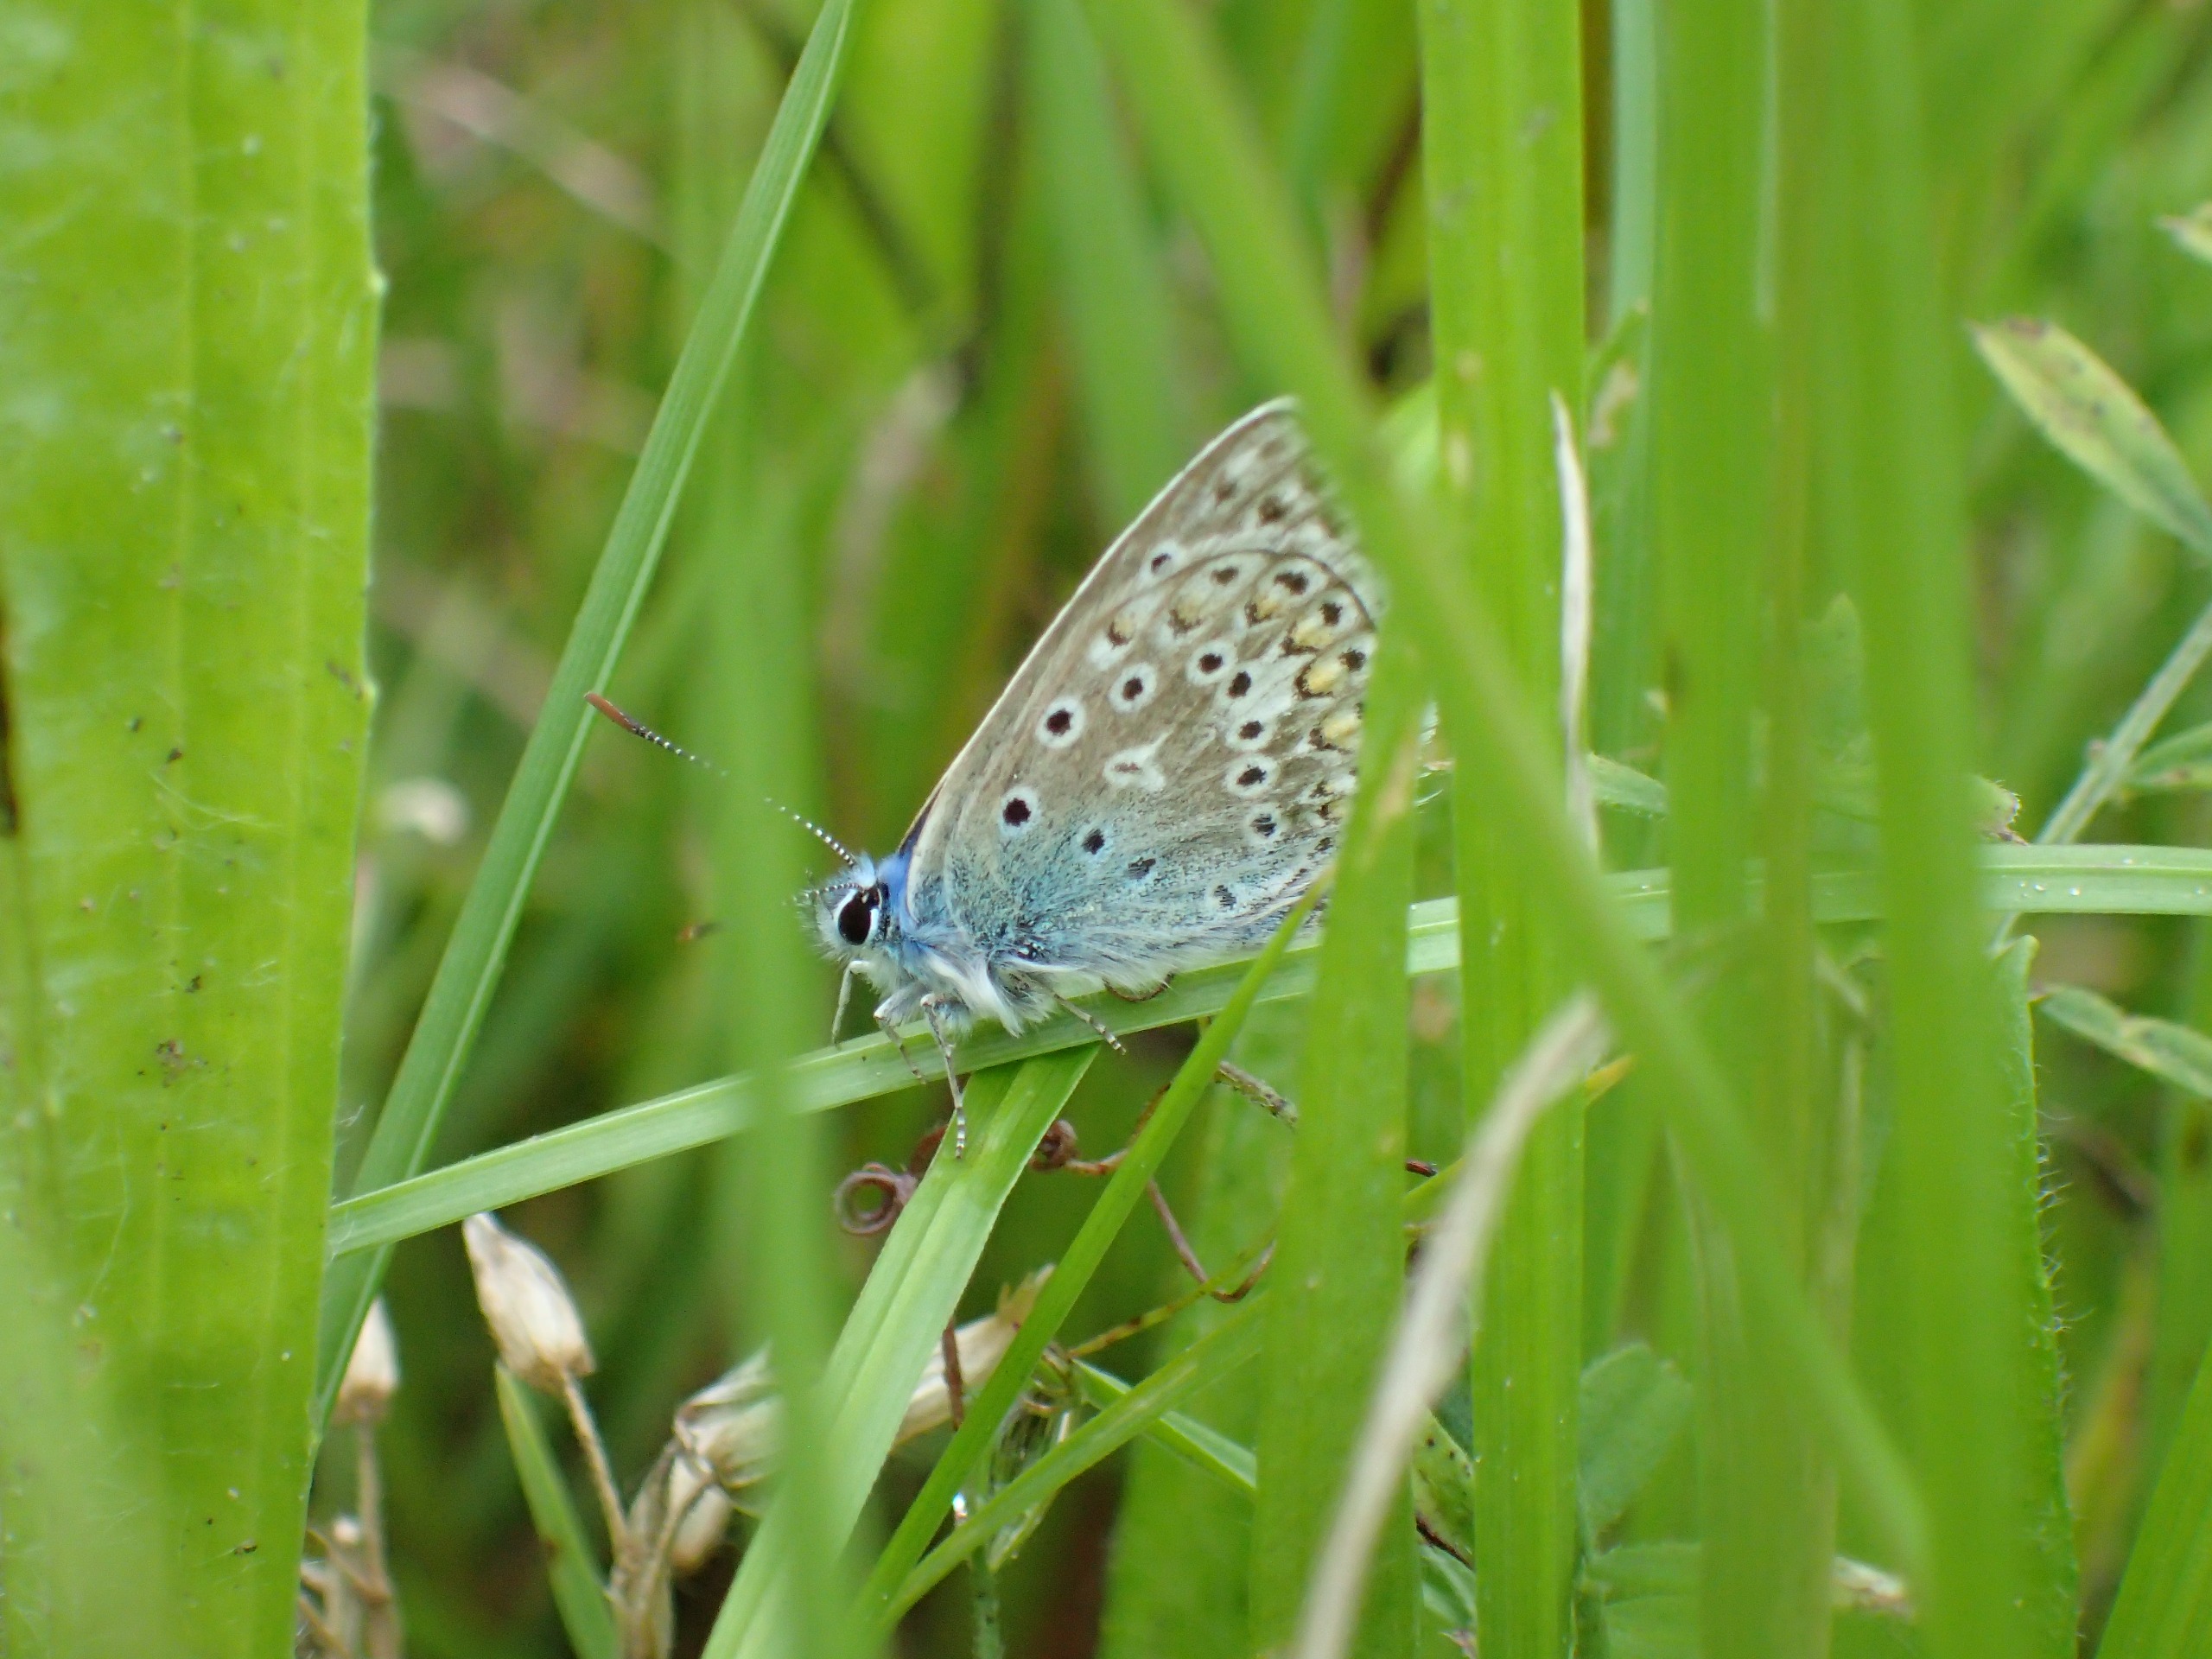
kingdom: Animalia
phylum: Arthropoda
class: Insecta
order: Lepidoptera
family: Lycaenidae
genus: Polyommatus
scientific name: Polyommatus icarus
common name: Almindelig blåfugl
